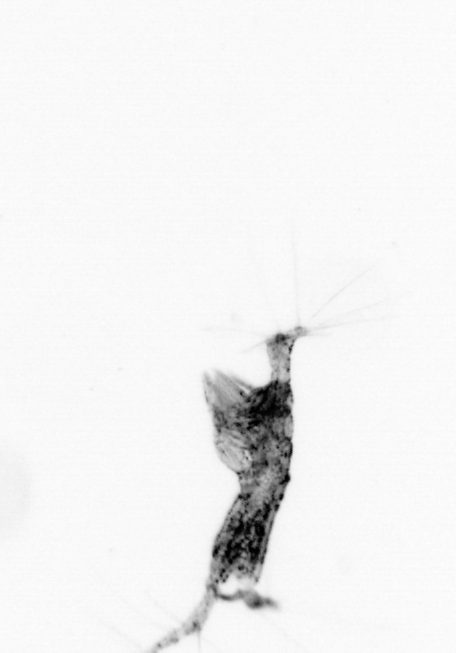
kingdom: Animalia
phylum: Arthropoda
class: Copepoda
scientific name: Copepoda
